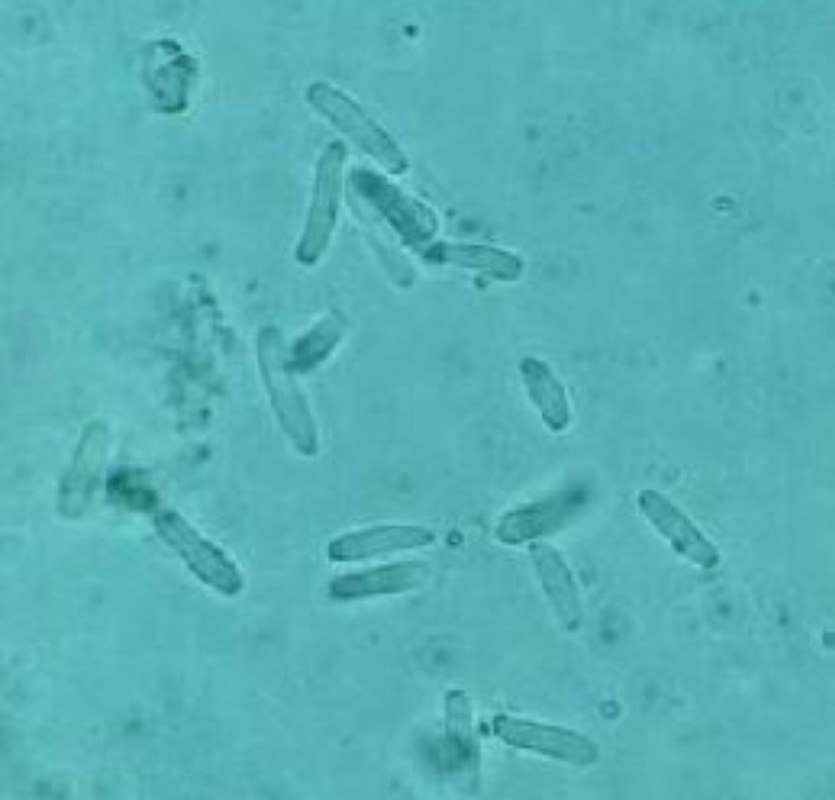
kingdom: Fungi
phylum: Ascomycota
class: Dothideomycetes
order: Pleosporales
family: Leptosphaeriaceae
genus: Leptosphaeria
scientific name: Leptosphaeria acuta
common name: spids kulkegle
